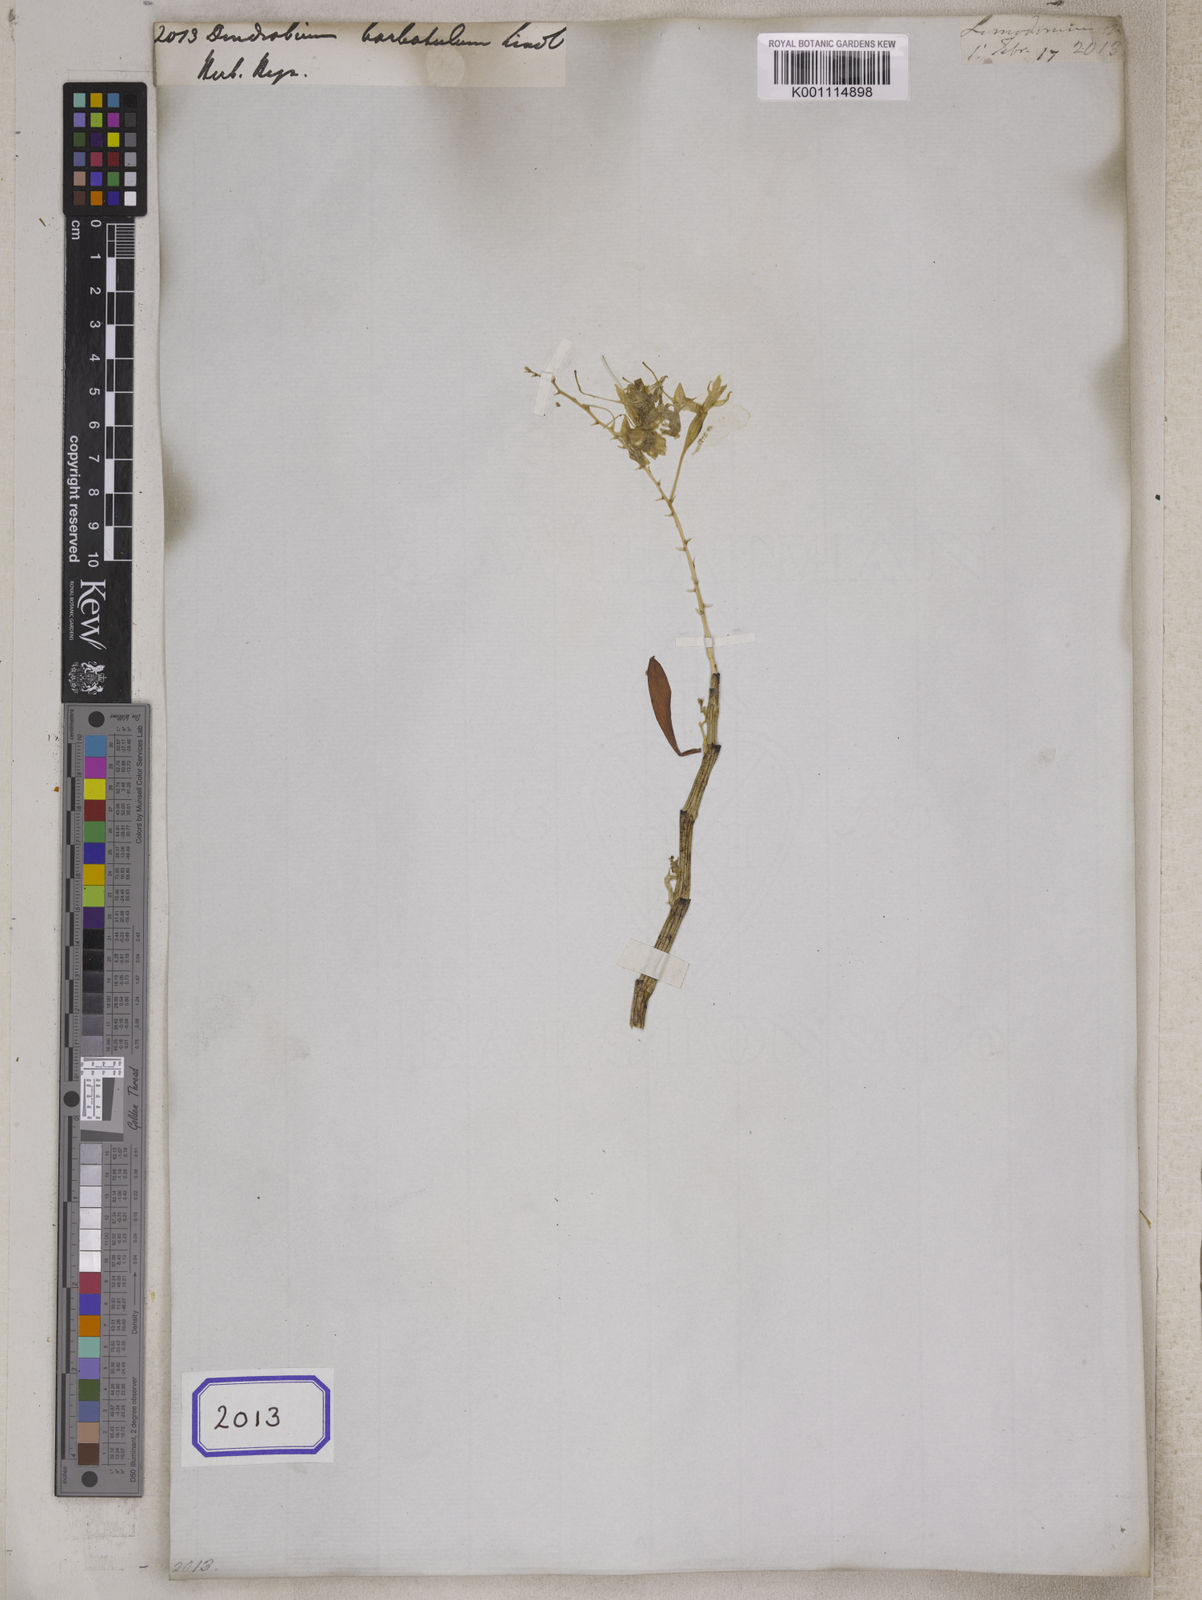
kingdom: Plantae
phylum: Tracheophyta
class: Liliopsida
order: Asparagales
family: Orchidaceae
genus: Dendrobium
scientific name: Dendrobium barbatulum
